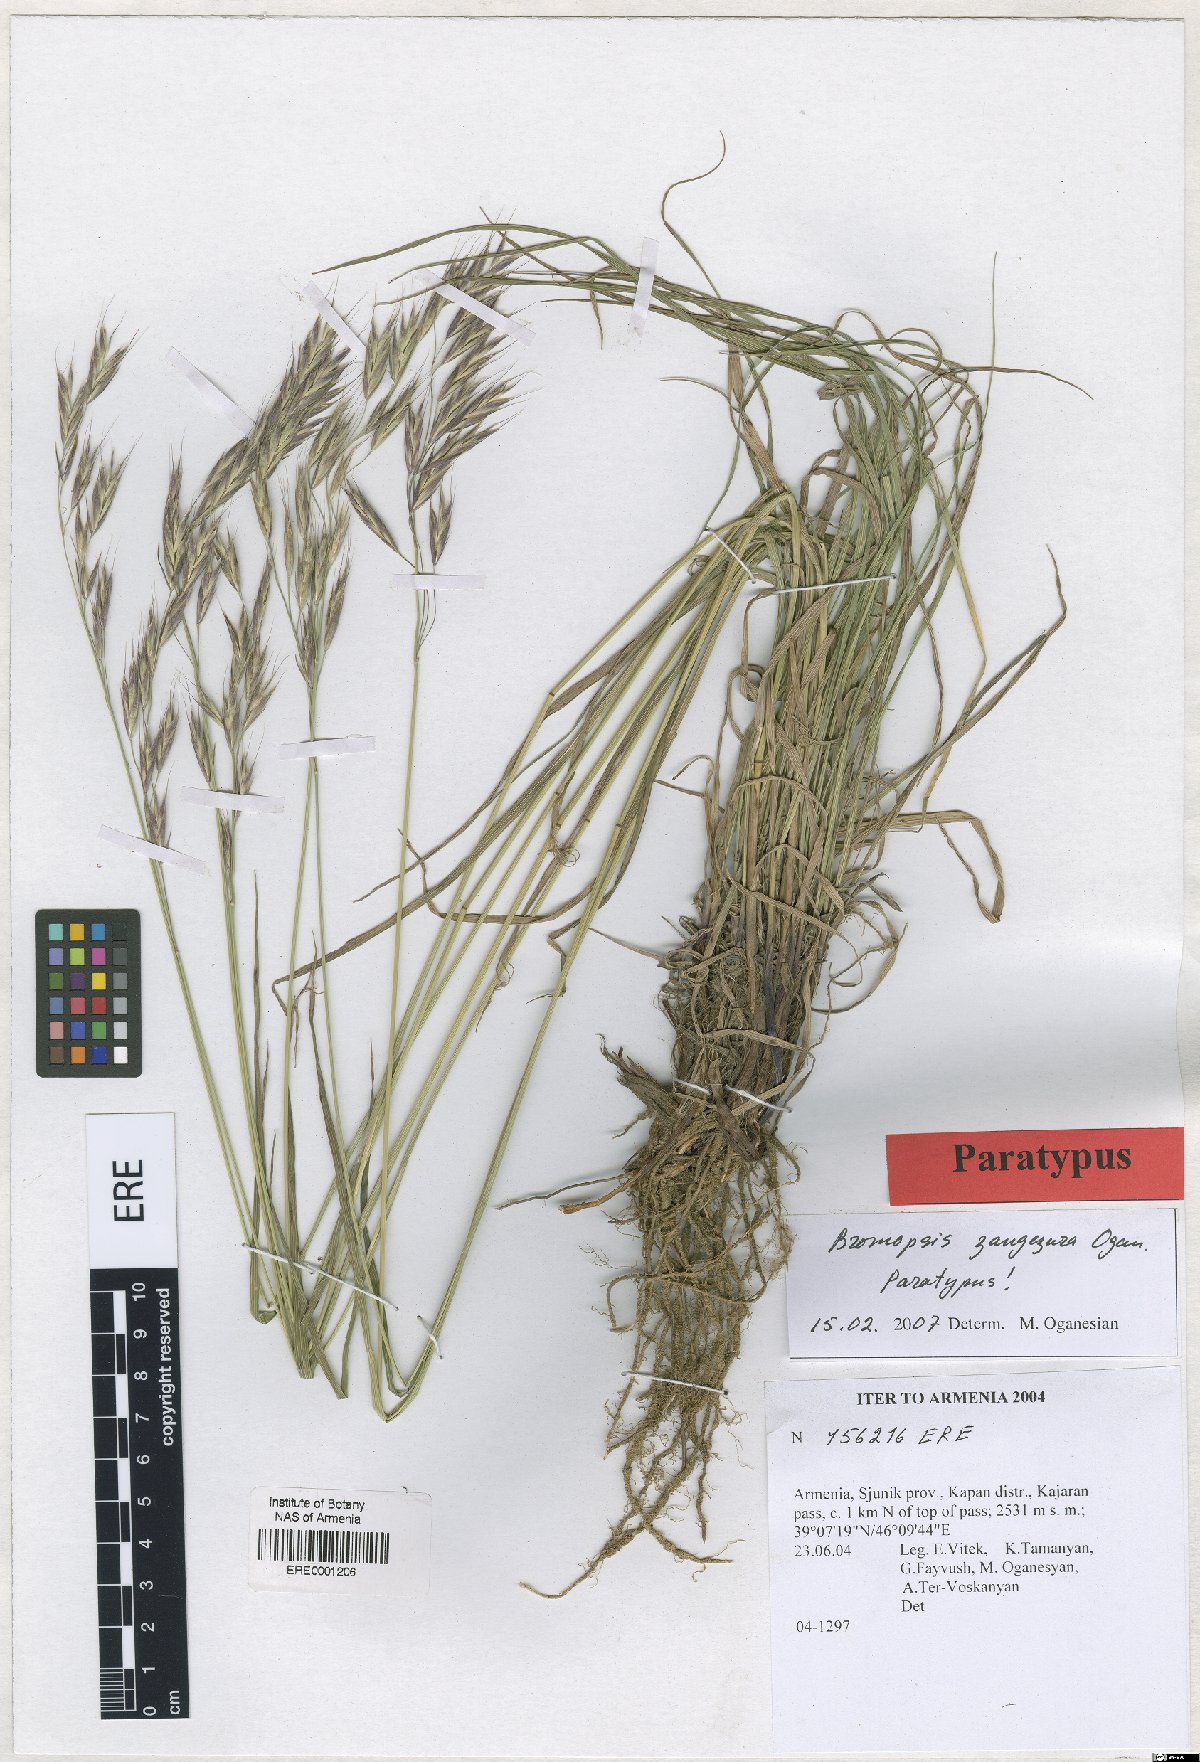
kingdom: Plantae
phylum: Tracheophyta
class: Liliopsida
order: Poales
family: Poaceae
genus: Bromus
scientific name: Bromus erectus
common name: Erect brome
